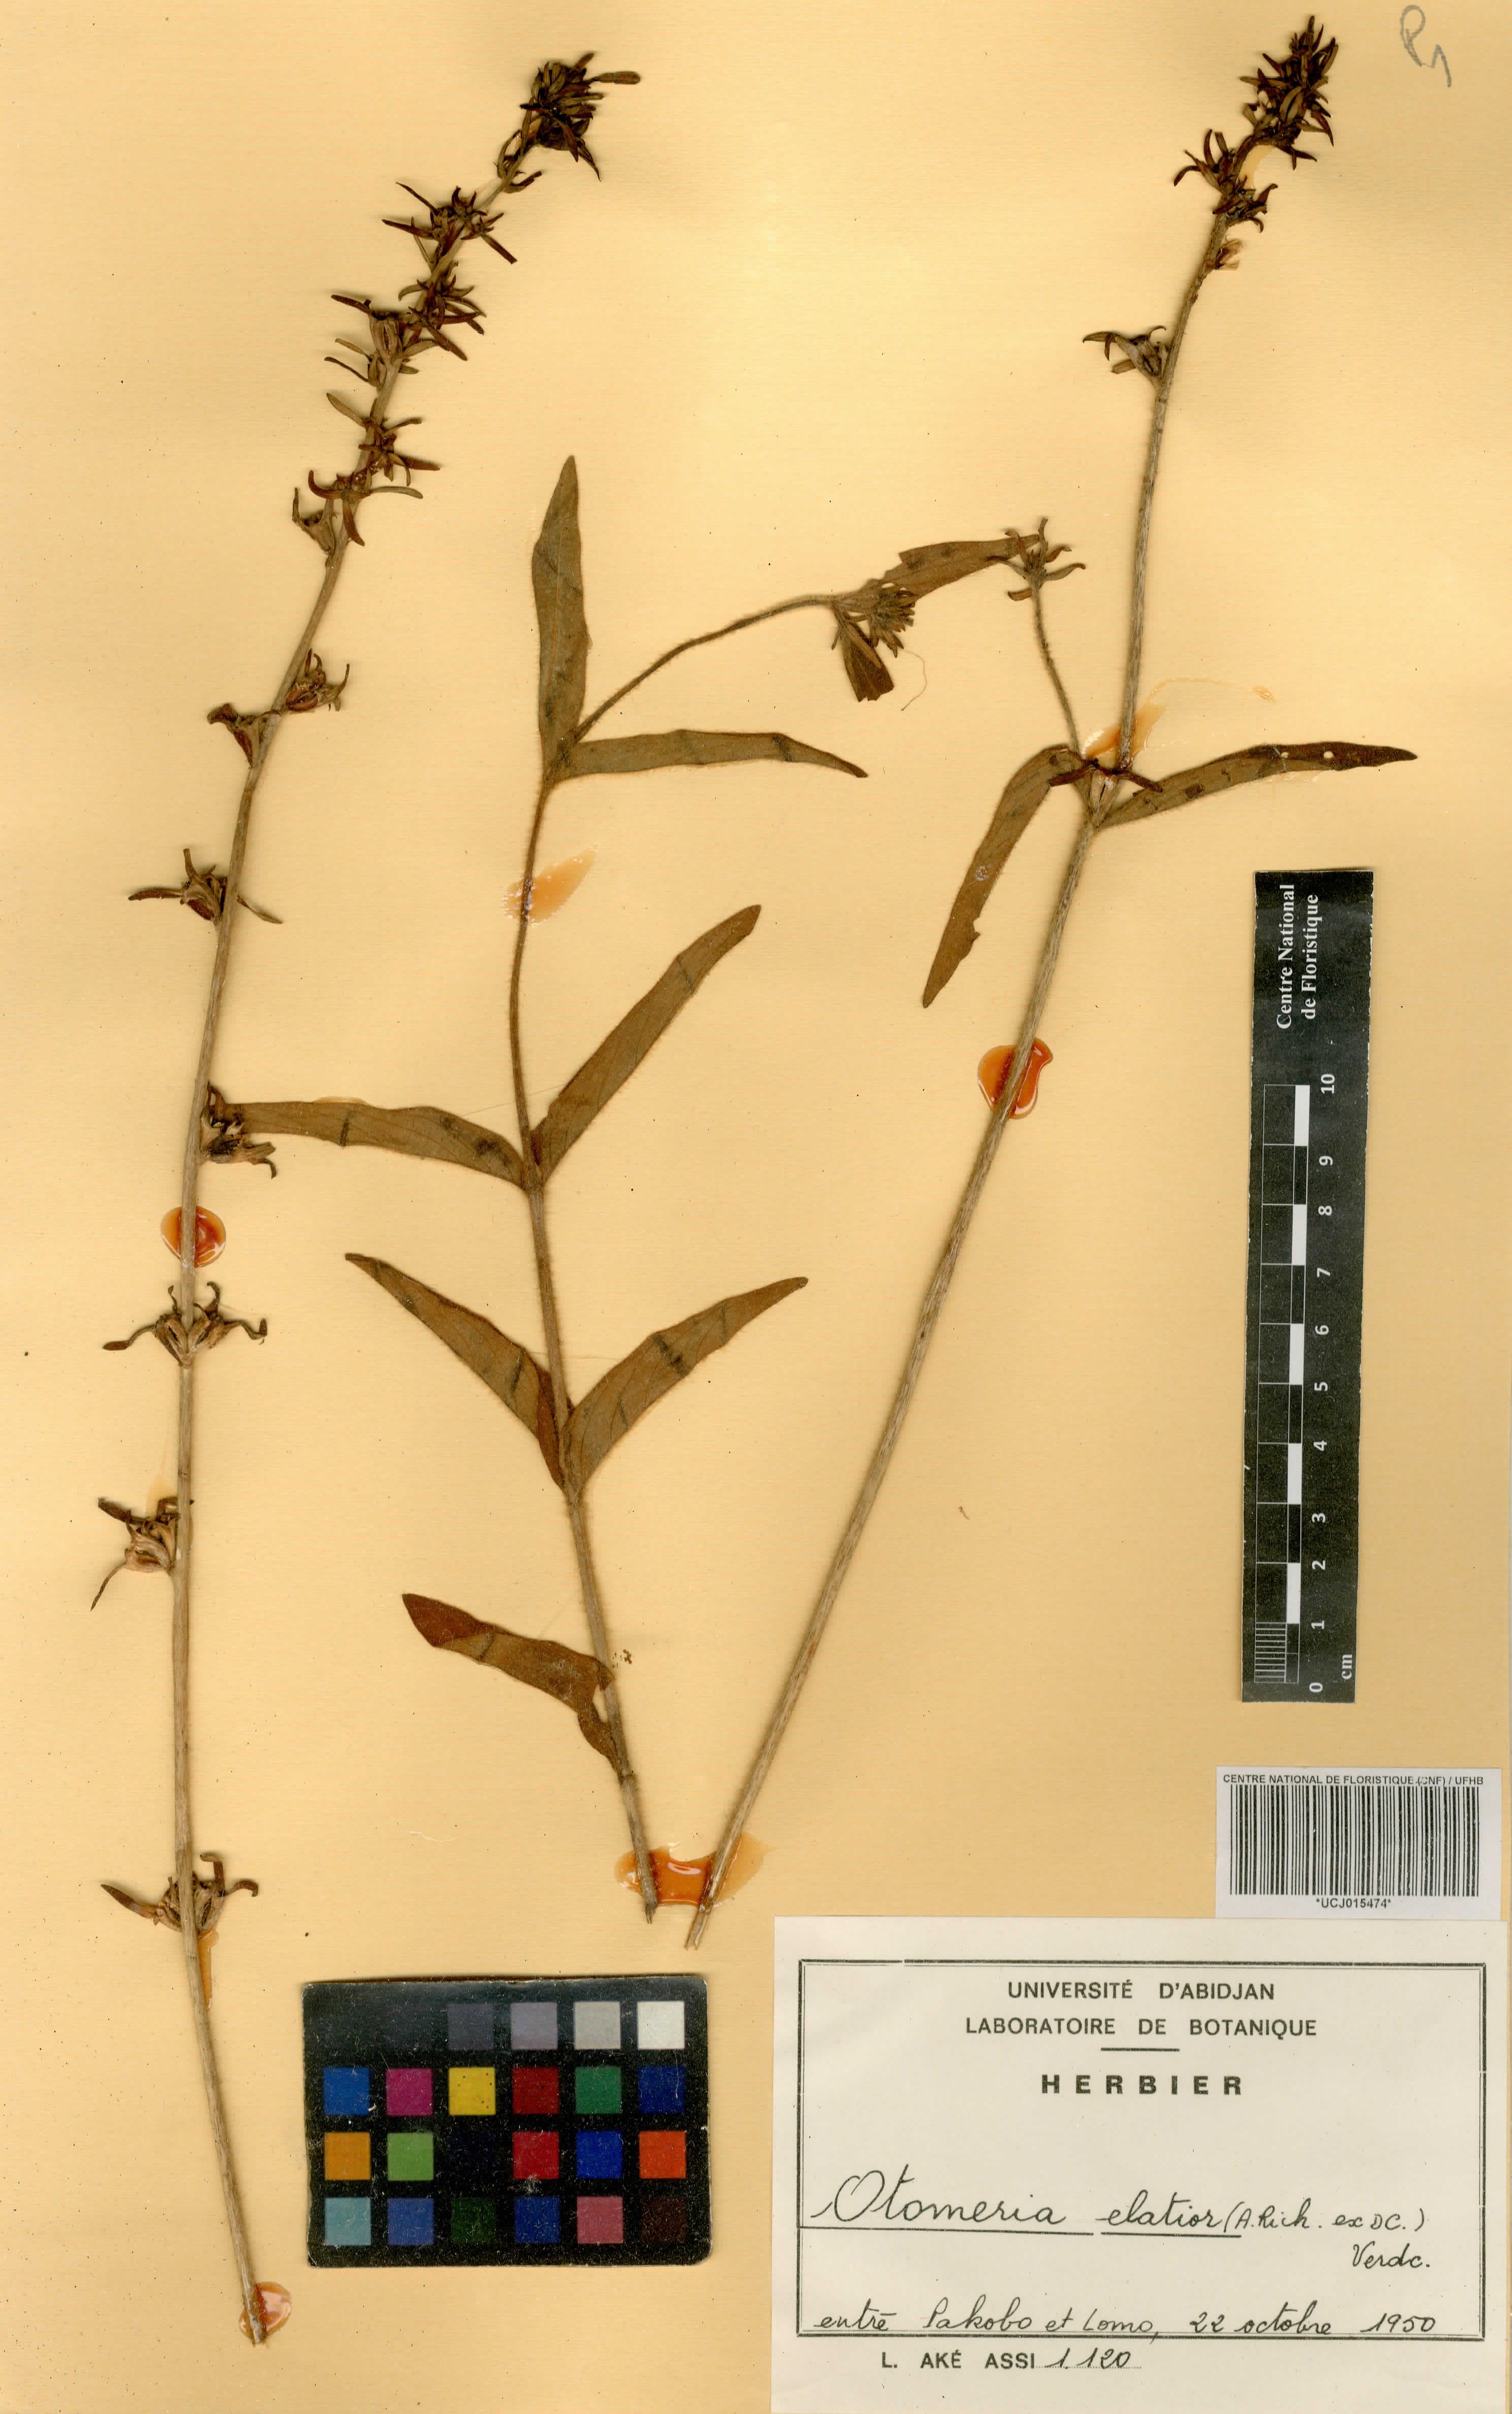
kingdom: Plantae
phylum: Tracheophyta
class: Magnoliopsida
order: Gentianales
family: Rubiaceae
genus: Otomeria
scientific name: Otomeria elatior
